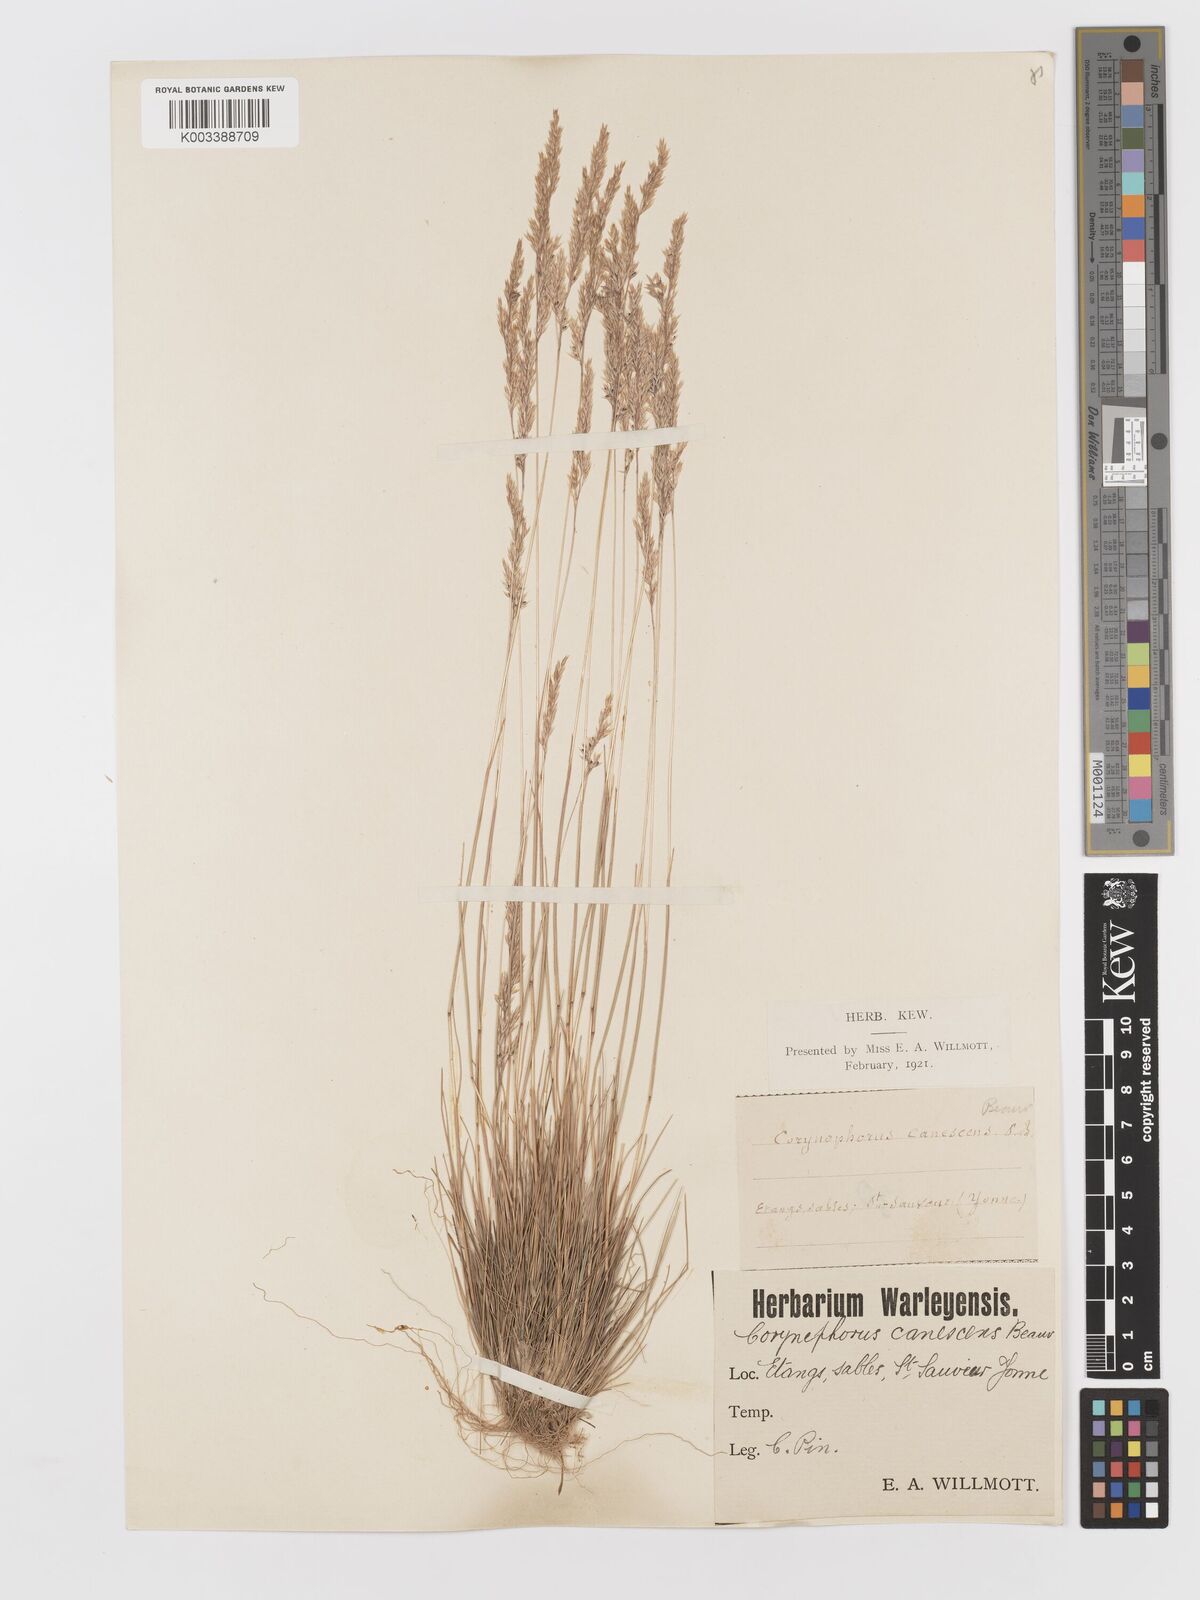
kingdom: Plantae
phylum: Tracheophyta
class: Liliopsida
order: Poales
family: Poaceae
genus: Corynephorus
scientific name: Corynephorus canescens
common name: Grey hair-grass
